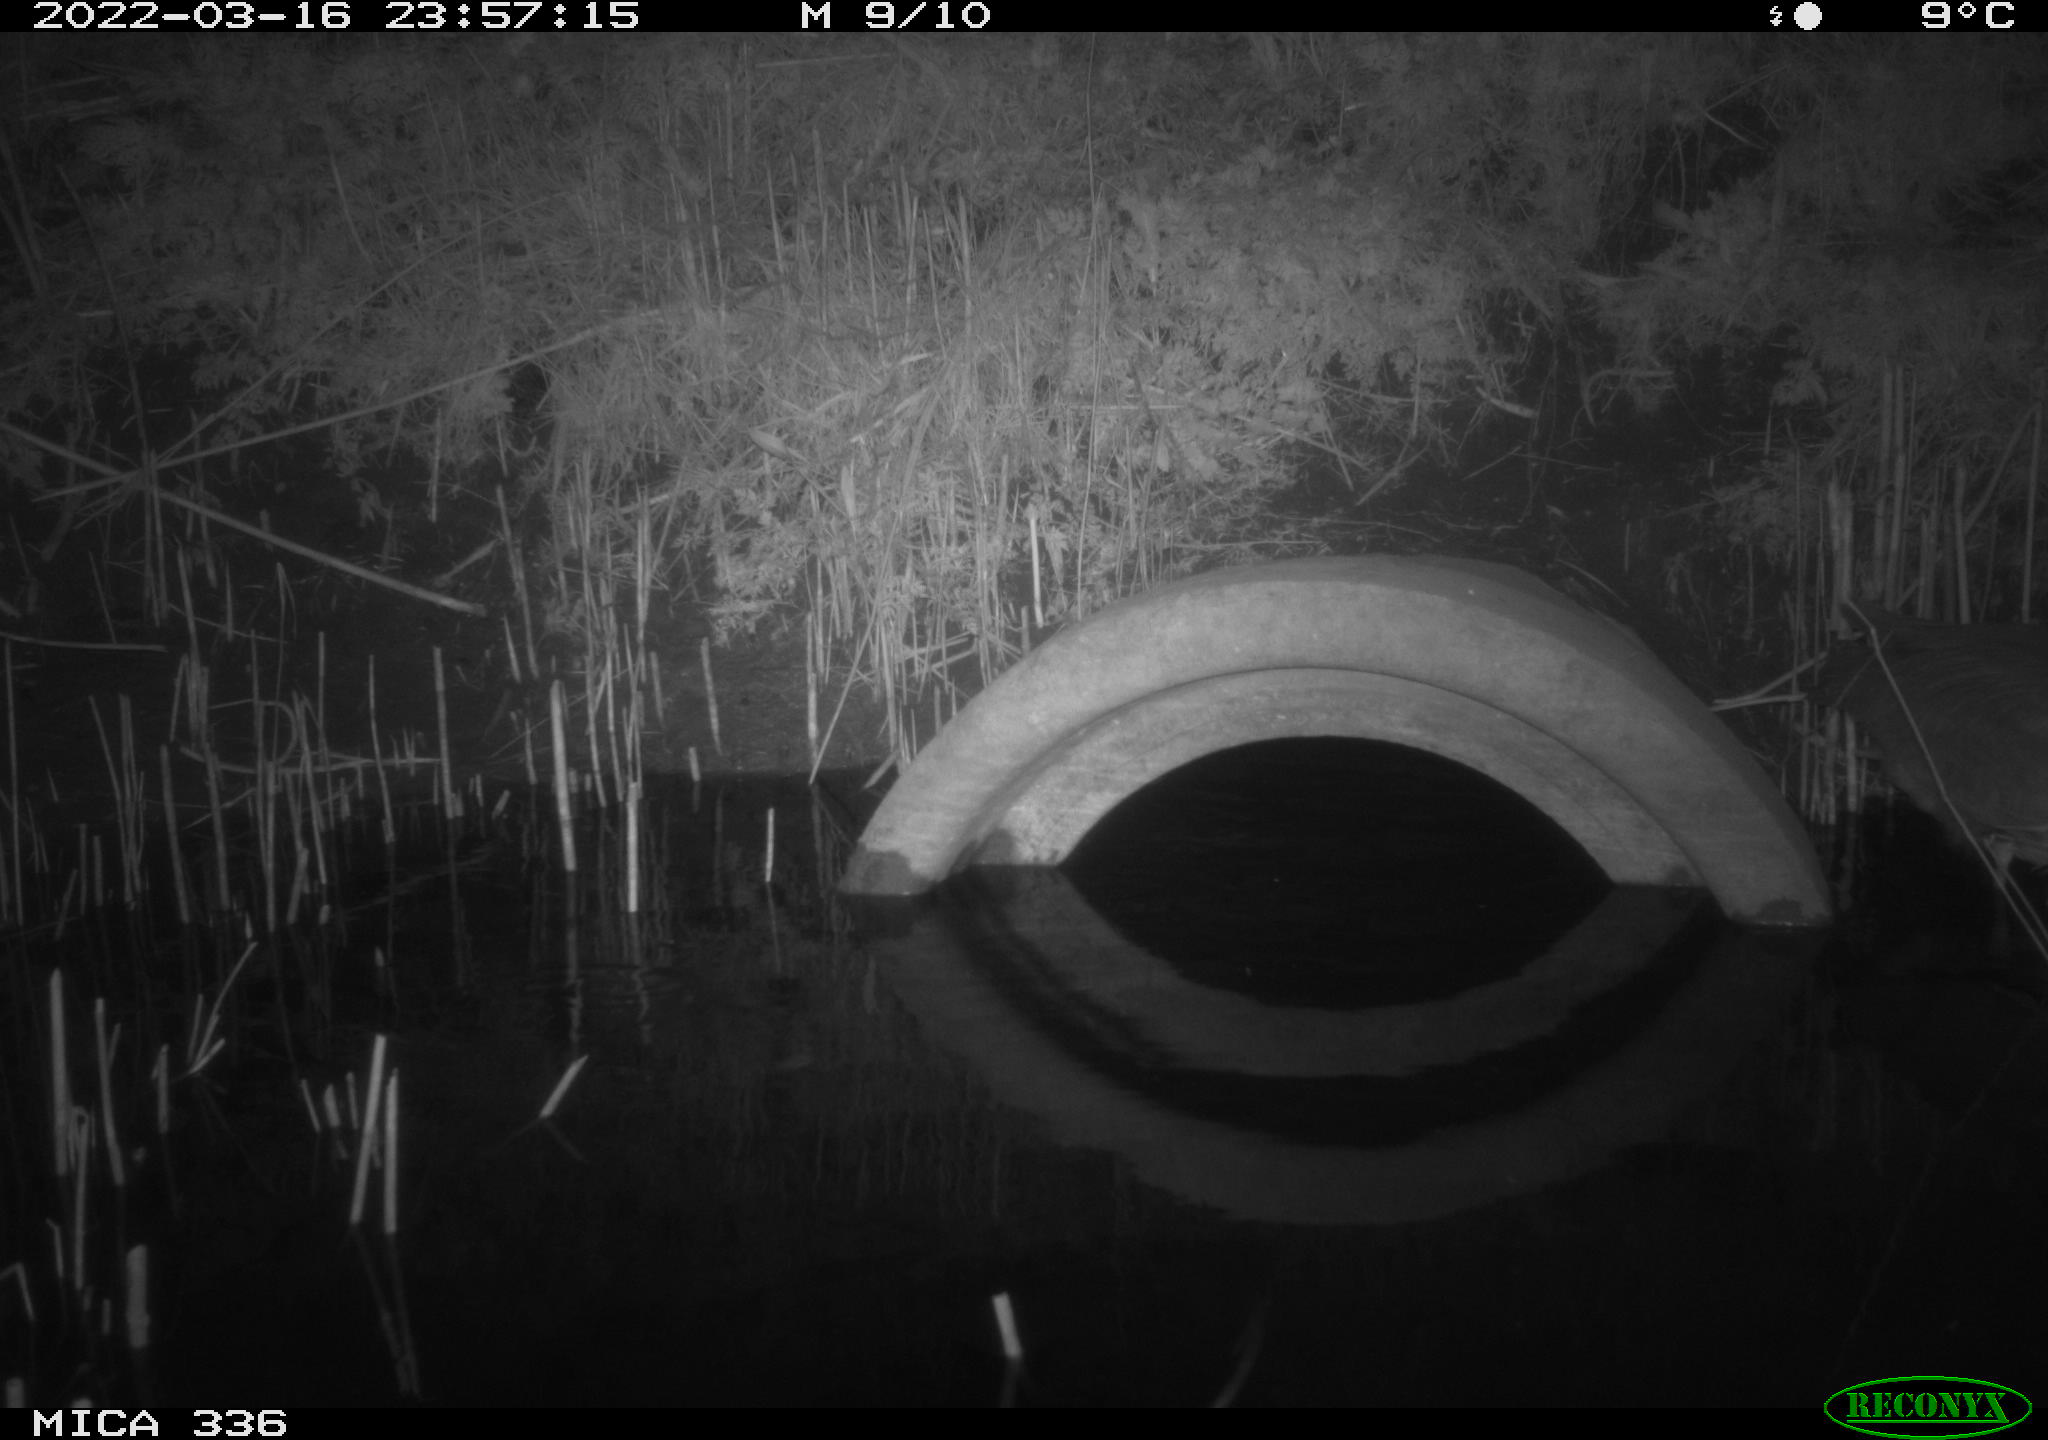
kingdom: Animalia
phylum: Chordata
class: Aves
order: Pelecaniformes
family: Ardeidae
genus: Ardea
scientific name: Ardea cinerea
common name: Grey heron
